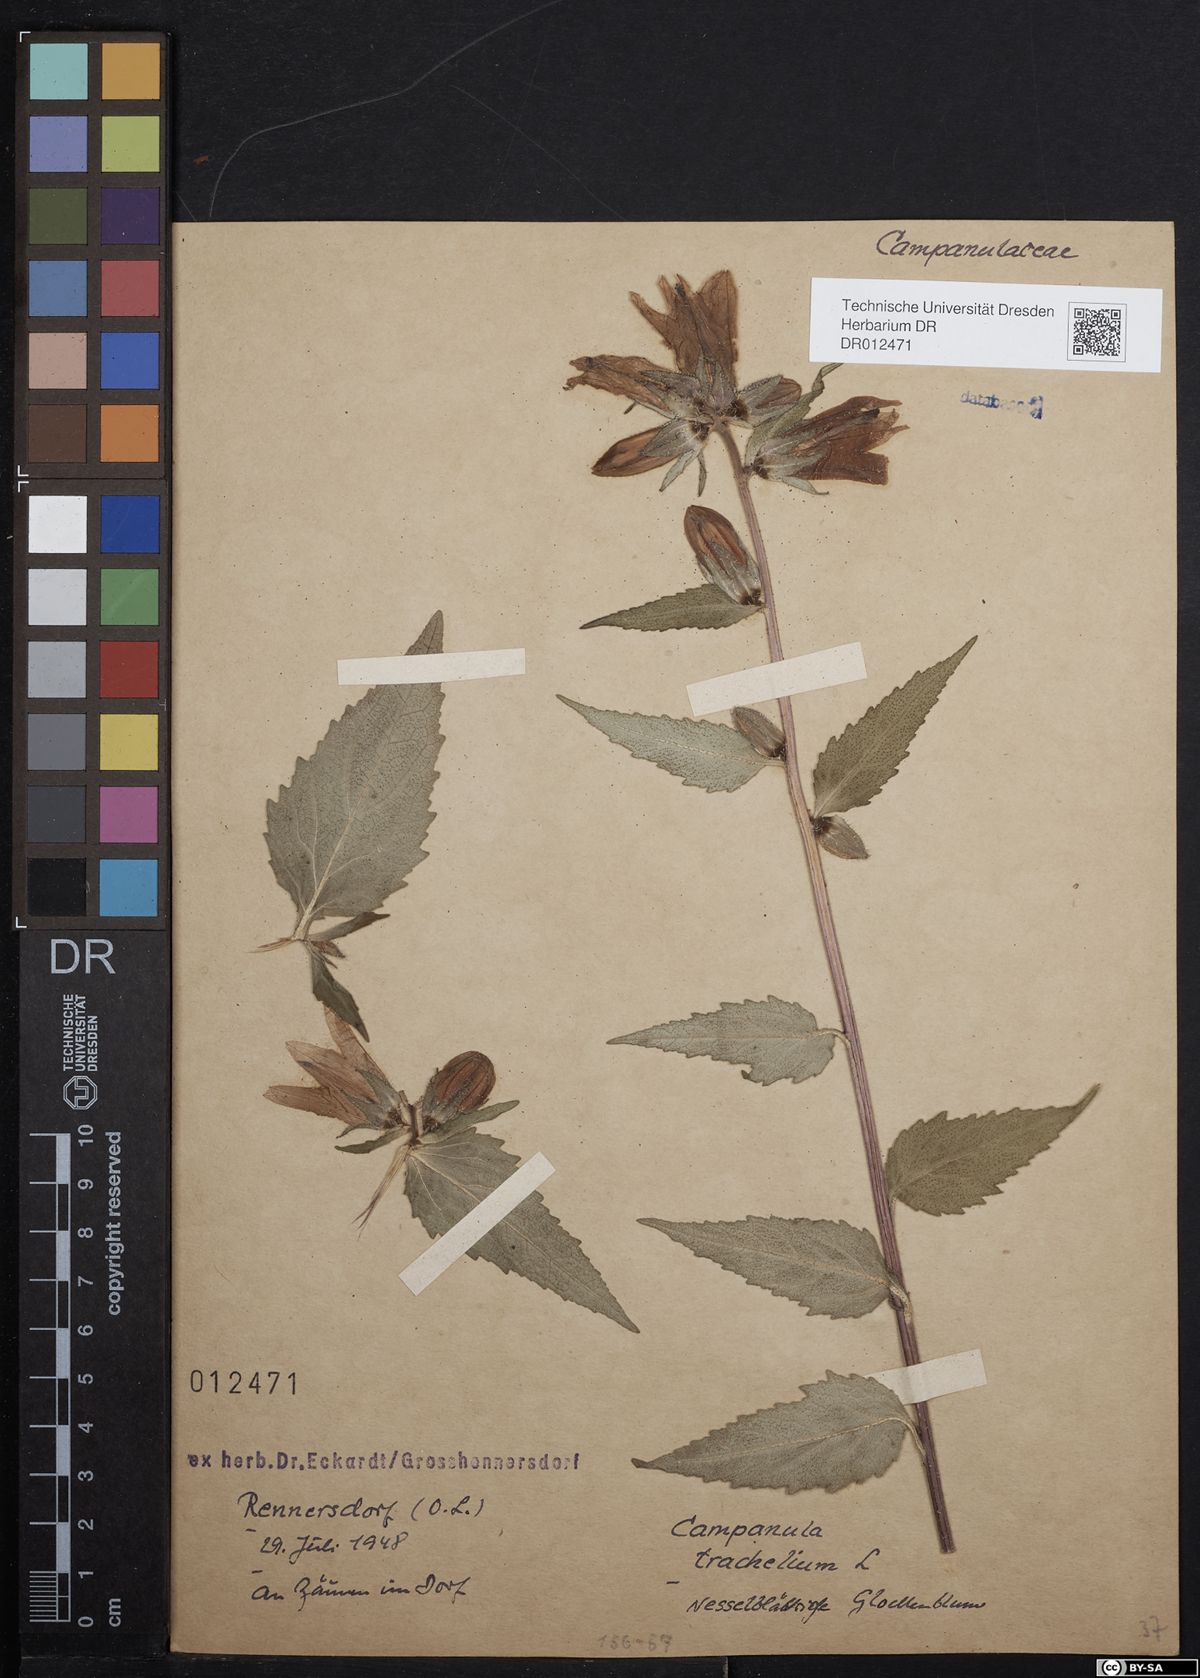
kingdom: Plantae
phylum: Tracheophyta
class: Magnoliopsida
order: Asterales
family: Campanulaceae
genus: Campanula
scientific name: Campanula trachelium
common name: Nettle-leaved bellflower
